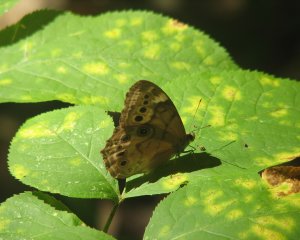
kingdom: Animalia
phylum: Arthropoda
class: Insecta
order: Lepidoptera
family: Nymphalidae
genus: Lethe
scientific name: Lethe eurydice
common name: Eyed Brown
